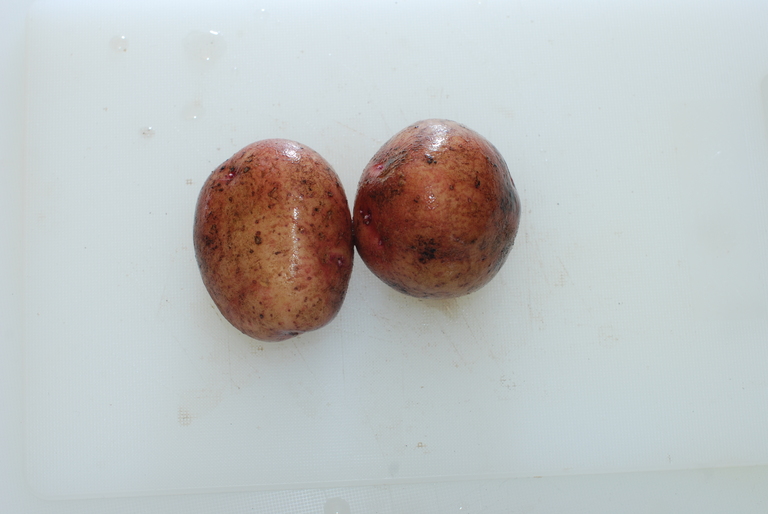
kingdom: Plantae
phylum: Tracheophyta
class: Magnoliopsida
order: Solanales
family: Solanaceae
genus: Solanum
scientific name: Solanum tuberosum
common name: Potato
